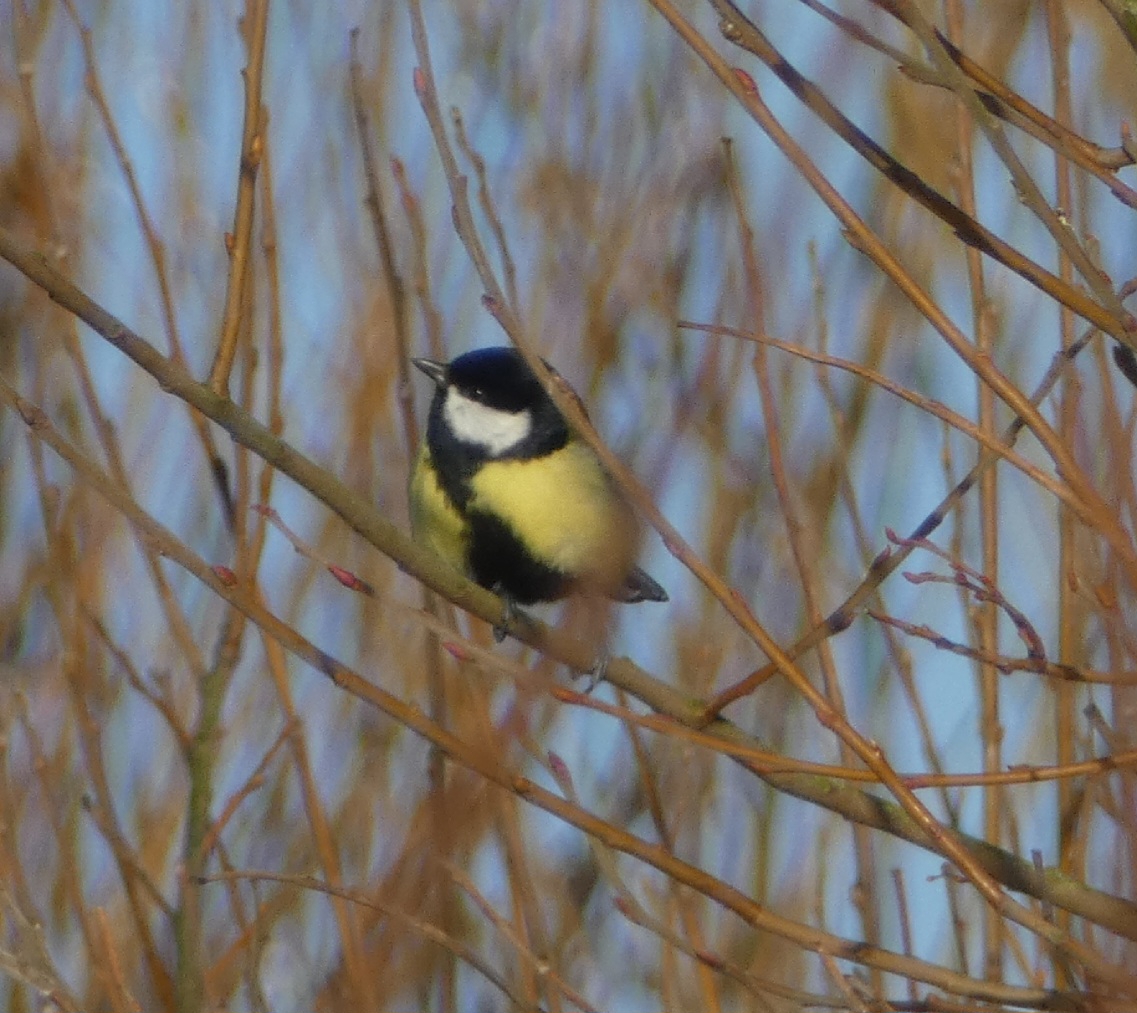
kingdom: Animalia
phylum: Chordata
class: Aves
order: Passeriformes
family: Paridae
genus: Parus
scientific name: Parus major
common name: Musvit
